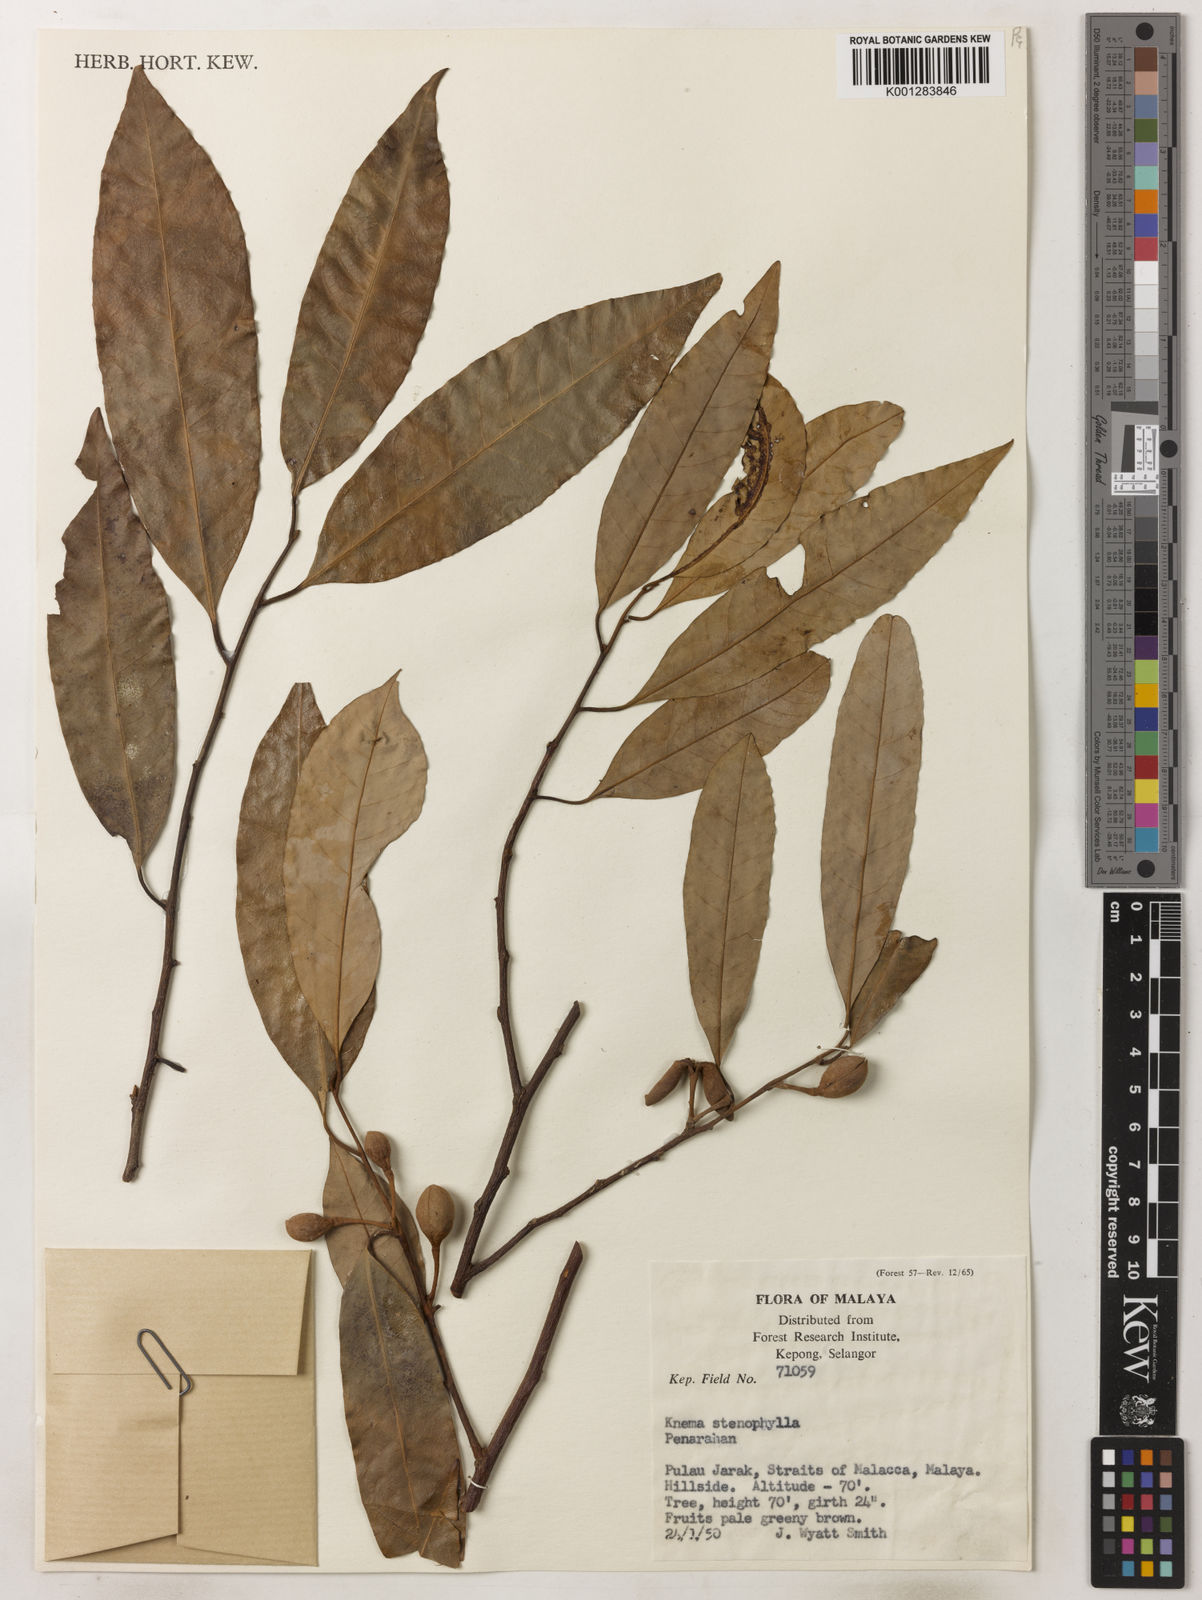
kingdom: Plantae
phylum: Tracheophyta
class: Magnoliopsida
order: Magnoliales
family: Myristicaceae
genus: Knema
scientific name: Knema stenophylla
